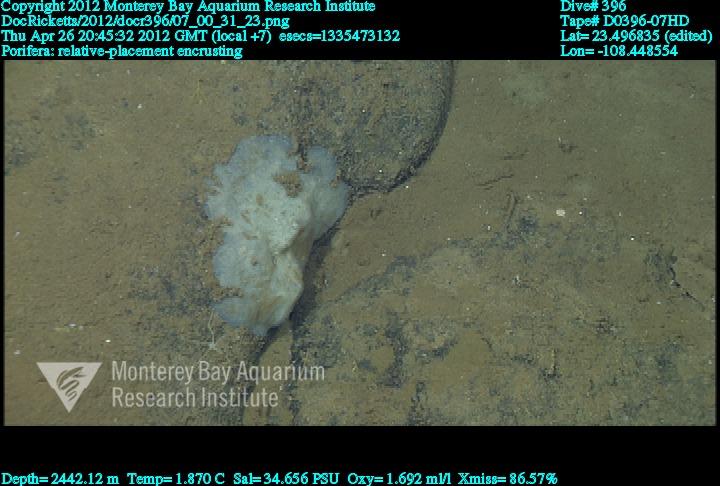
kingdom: Animalia
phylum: Porifera
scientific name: Porifera
